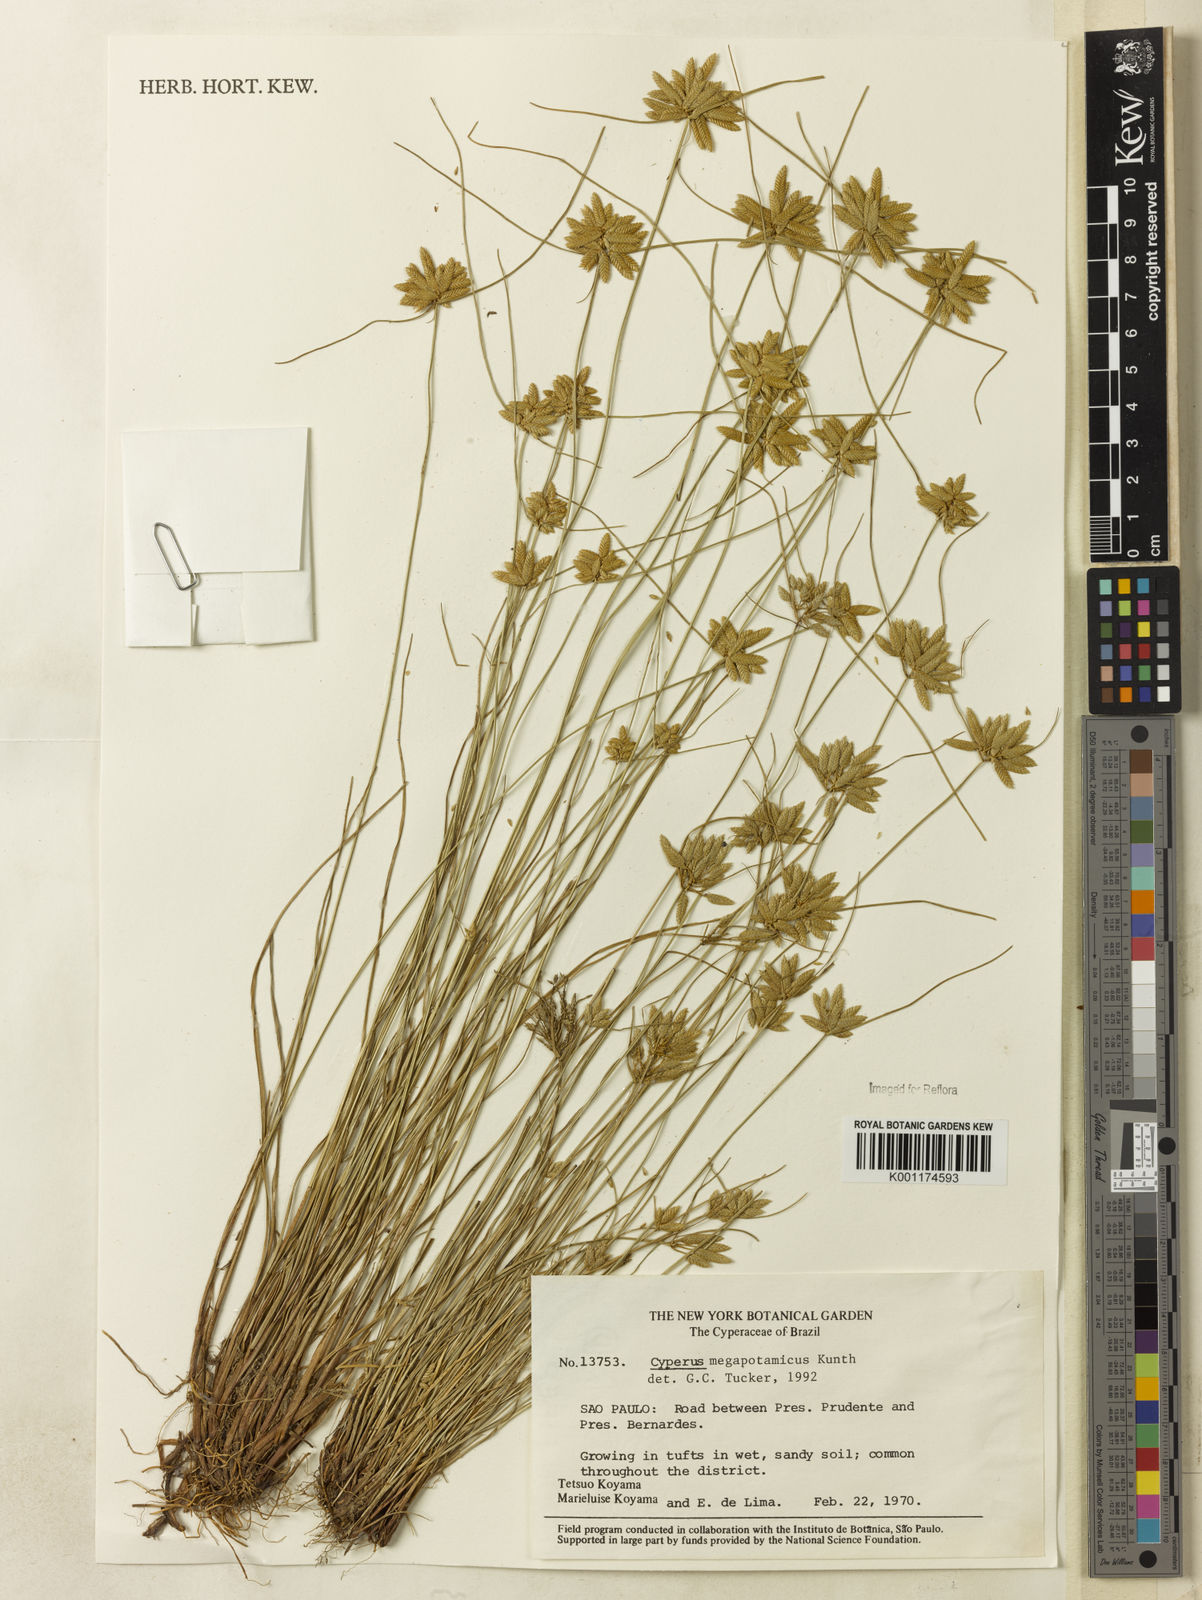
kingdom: Plantae
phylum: Tracheophyta
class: Liliopsida
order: Poales
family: Cyperaceae
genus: Cyperus
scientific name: Cyperus megapotamicus
